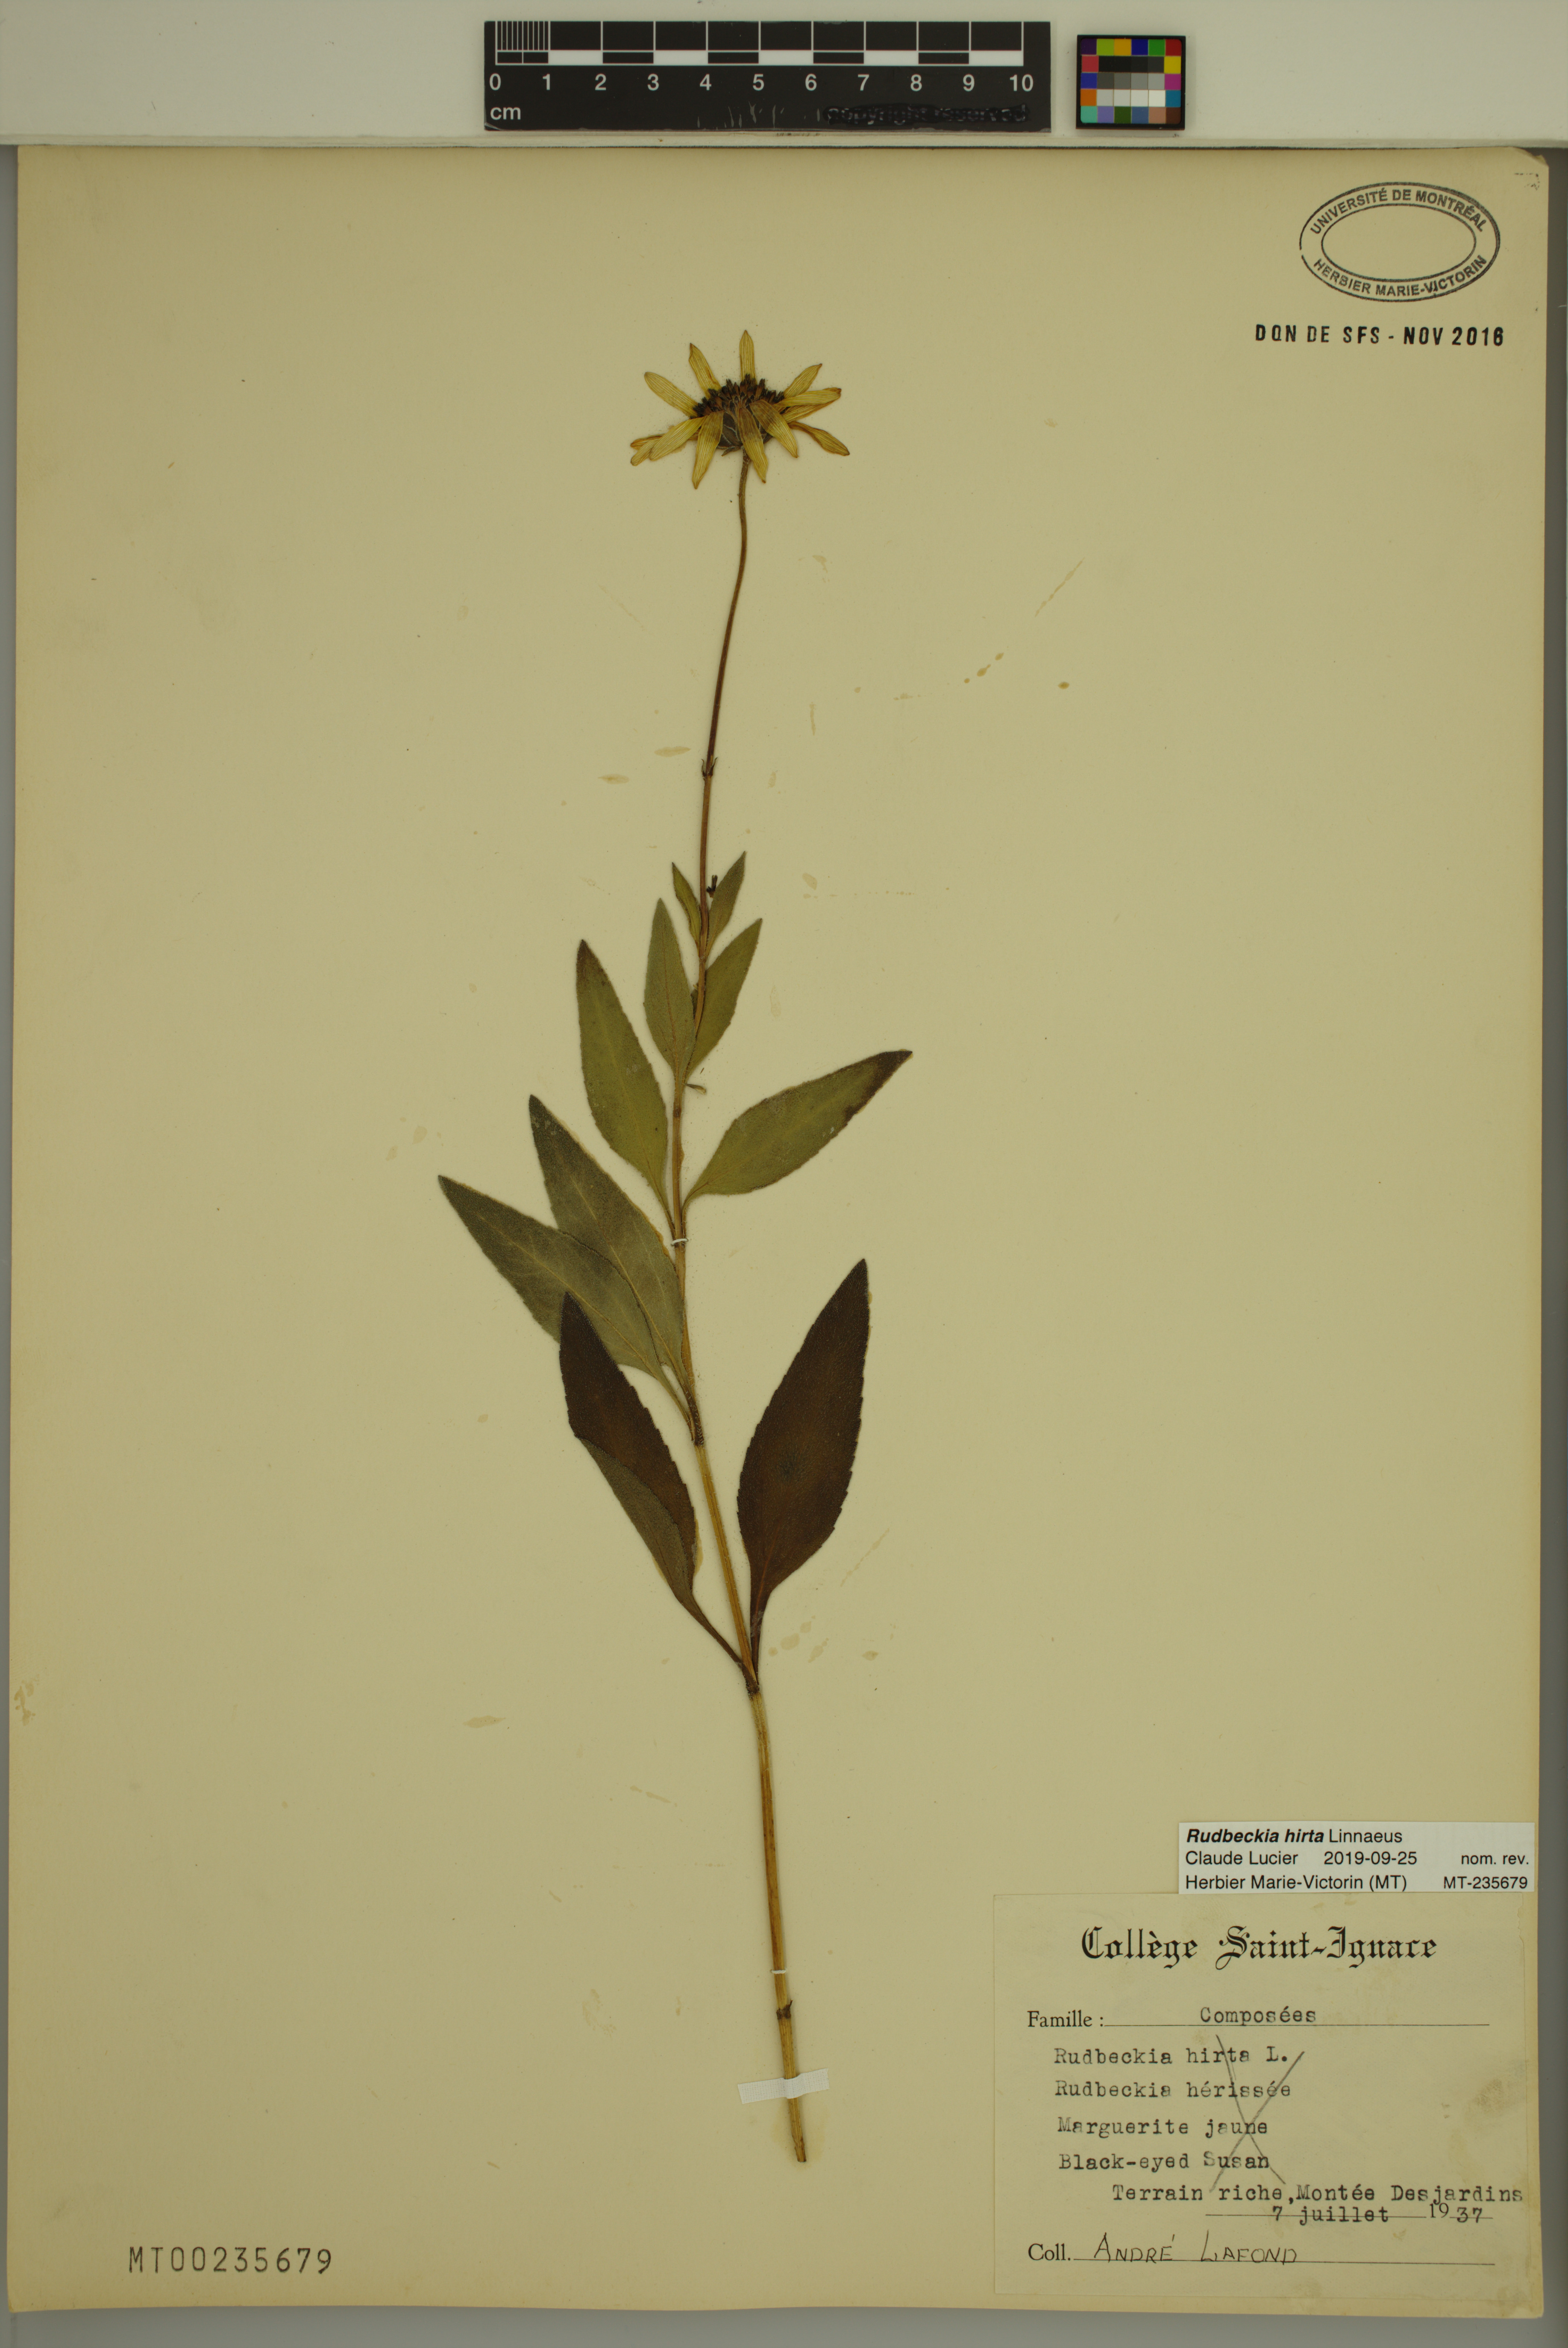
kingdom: Plantae
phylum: Tracheophyta
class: Magnoliopsida
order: Asterales
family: Asteraceae
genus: Rudbeckia
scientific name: Rudbeckia hirta
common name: Black-eyed-susan
